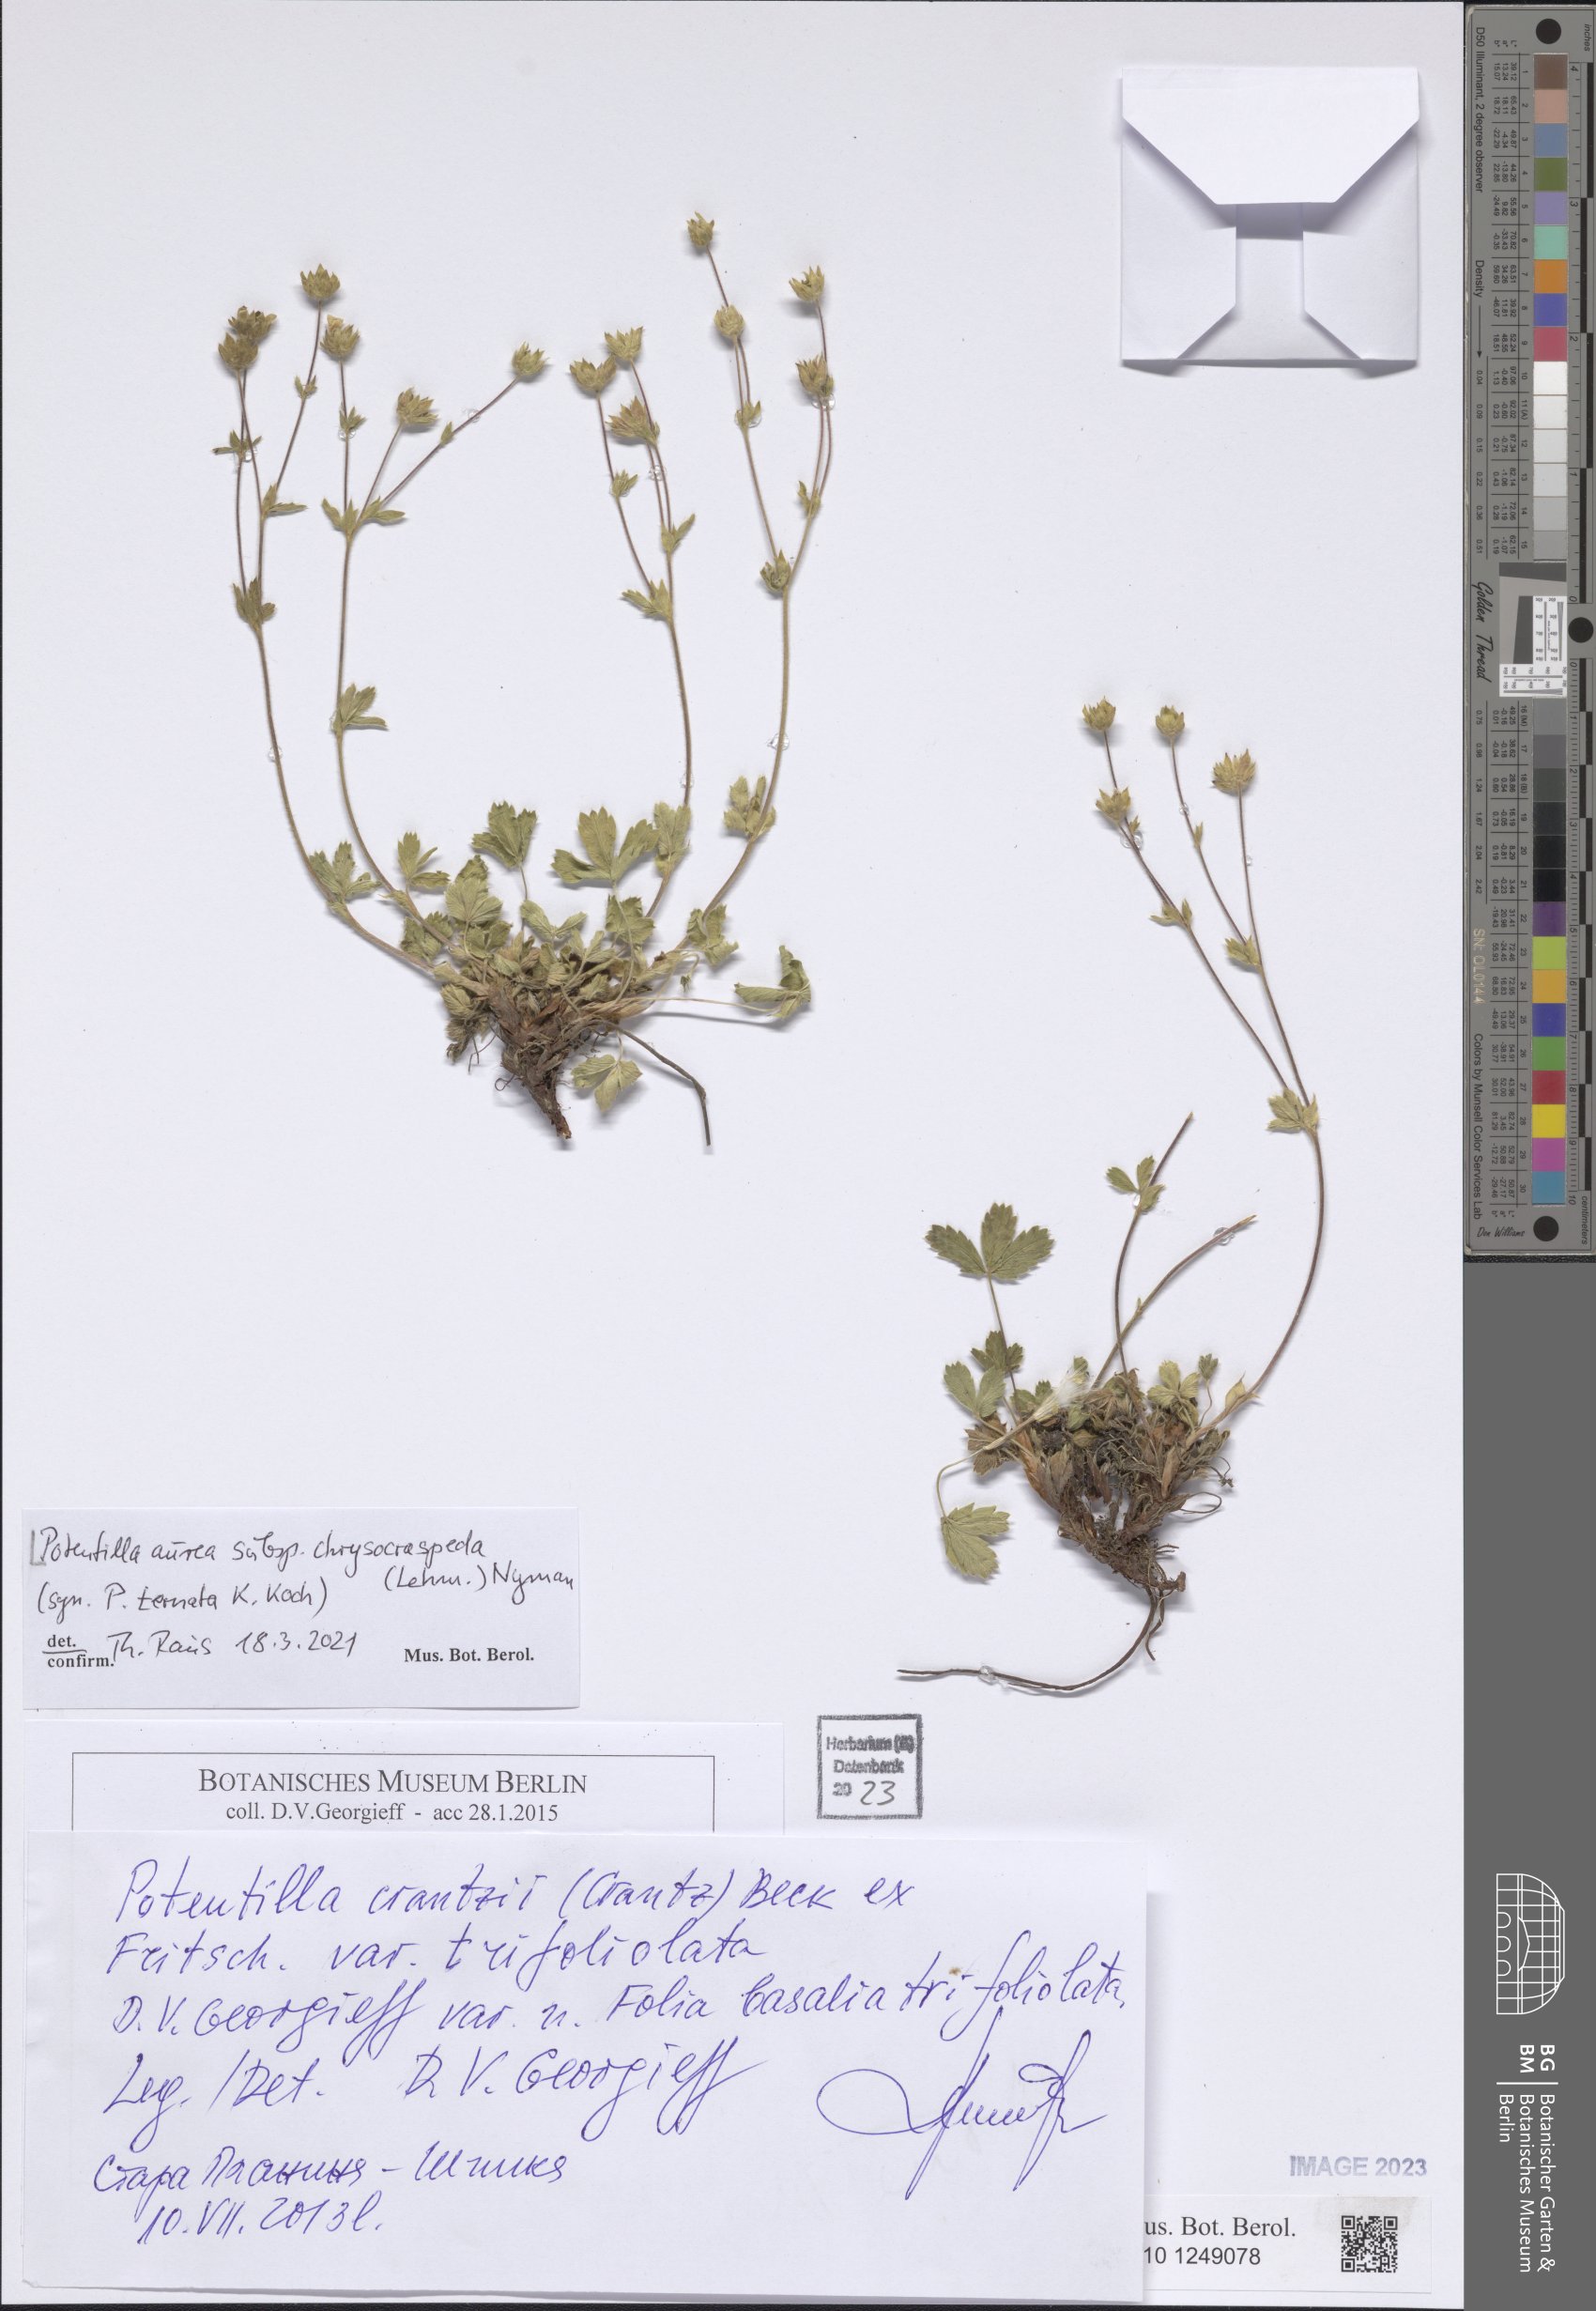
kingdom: Plantae
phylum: Tracheophyta
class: Magnoliopsida
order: Rosales
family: Rosaceae
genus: Potentilla
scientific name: Potentilla aurea
